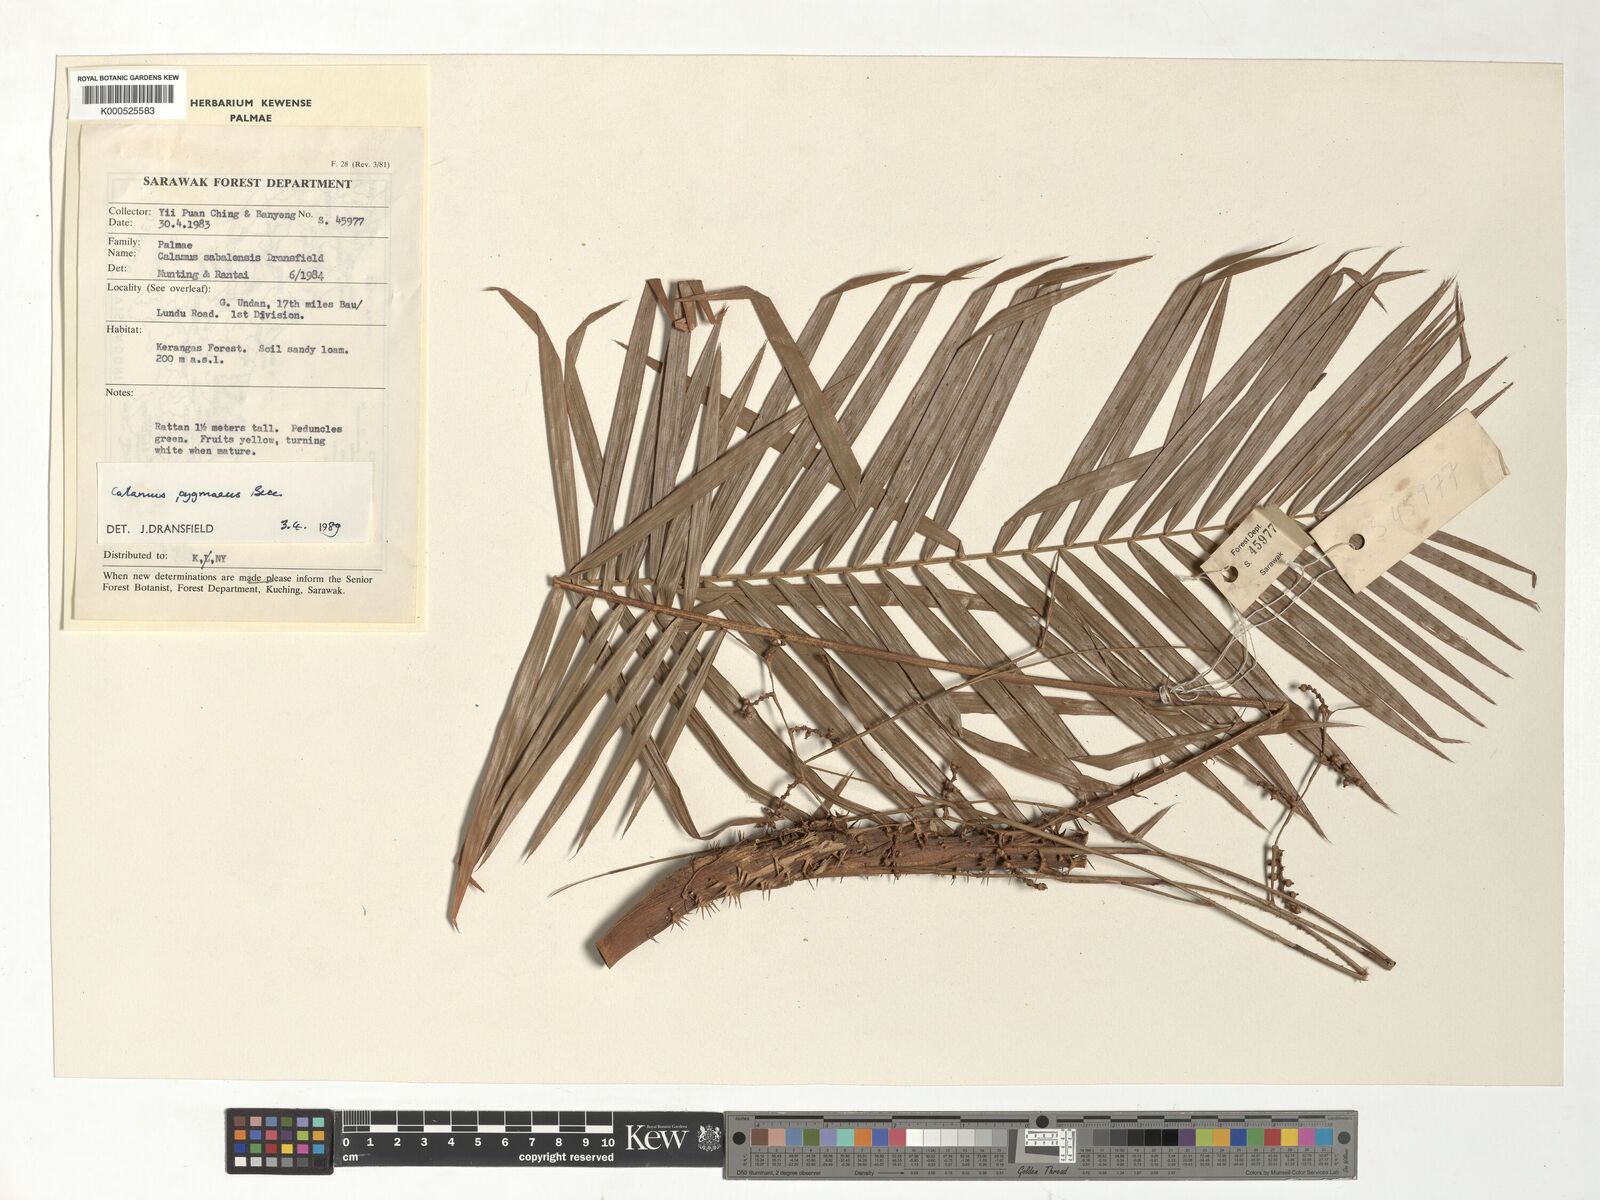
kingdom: Plantae
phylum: Tracheophyta
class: Liliopsida
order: Arecales
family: Arecaceae
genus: Calamus
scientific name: Calamus pygmaeus
